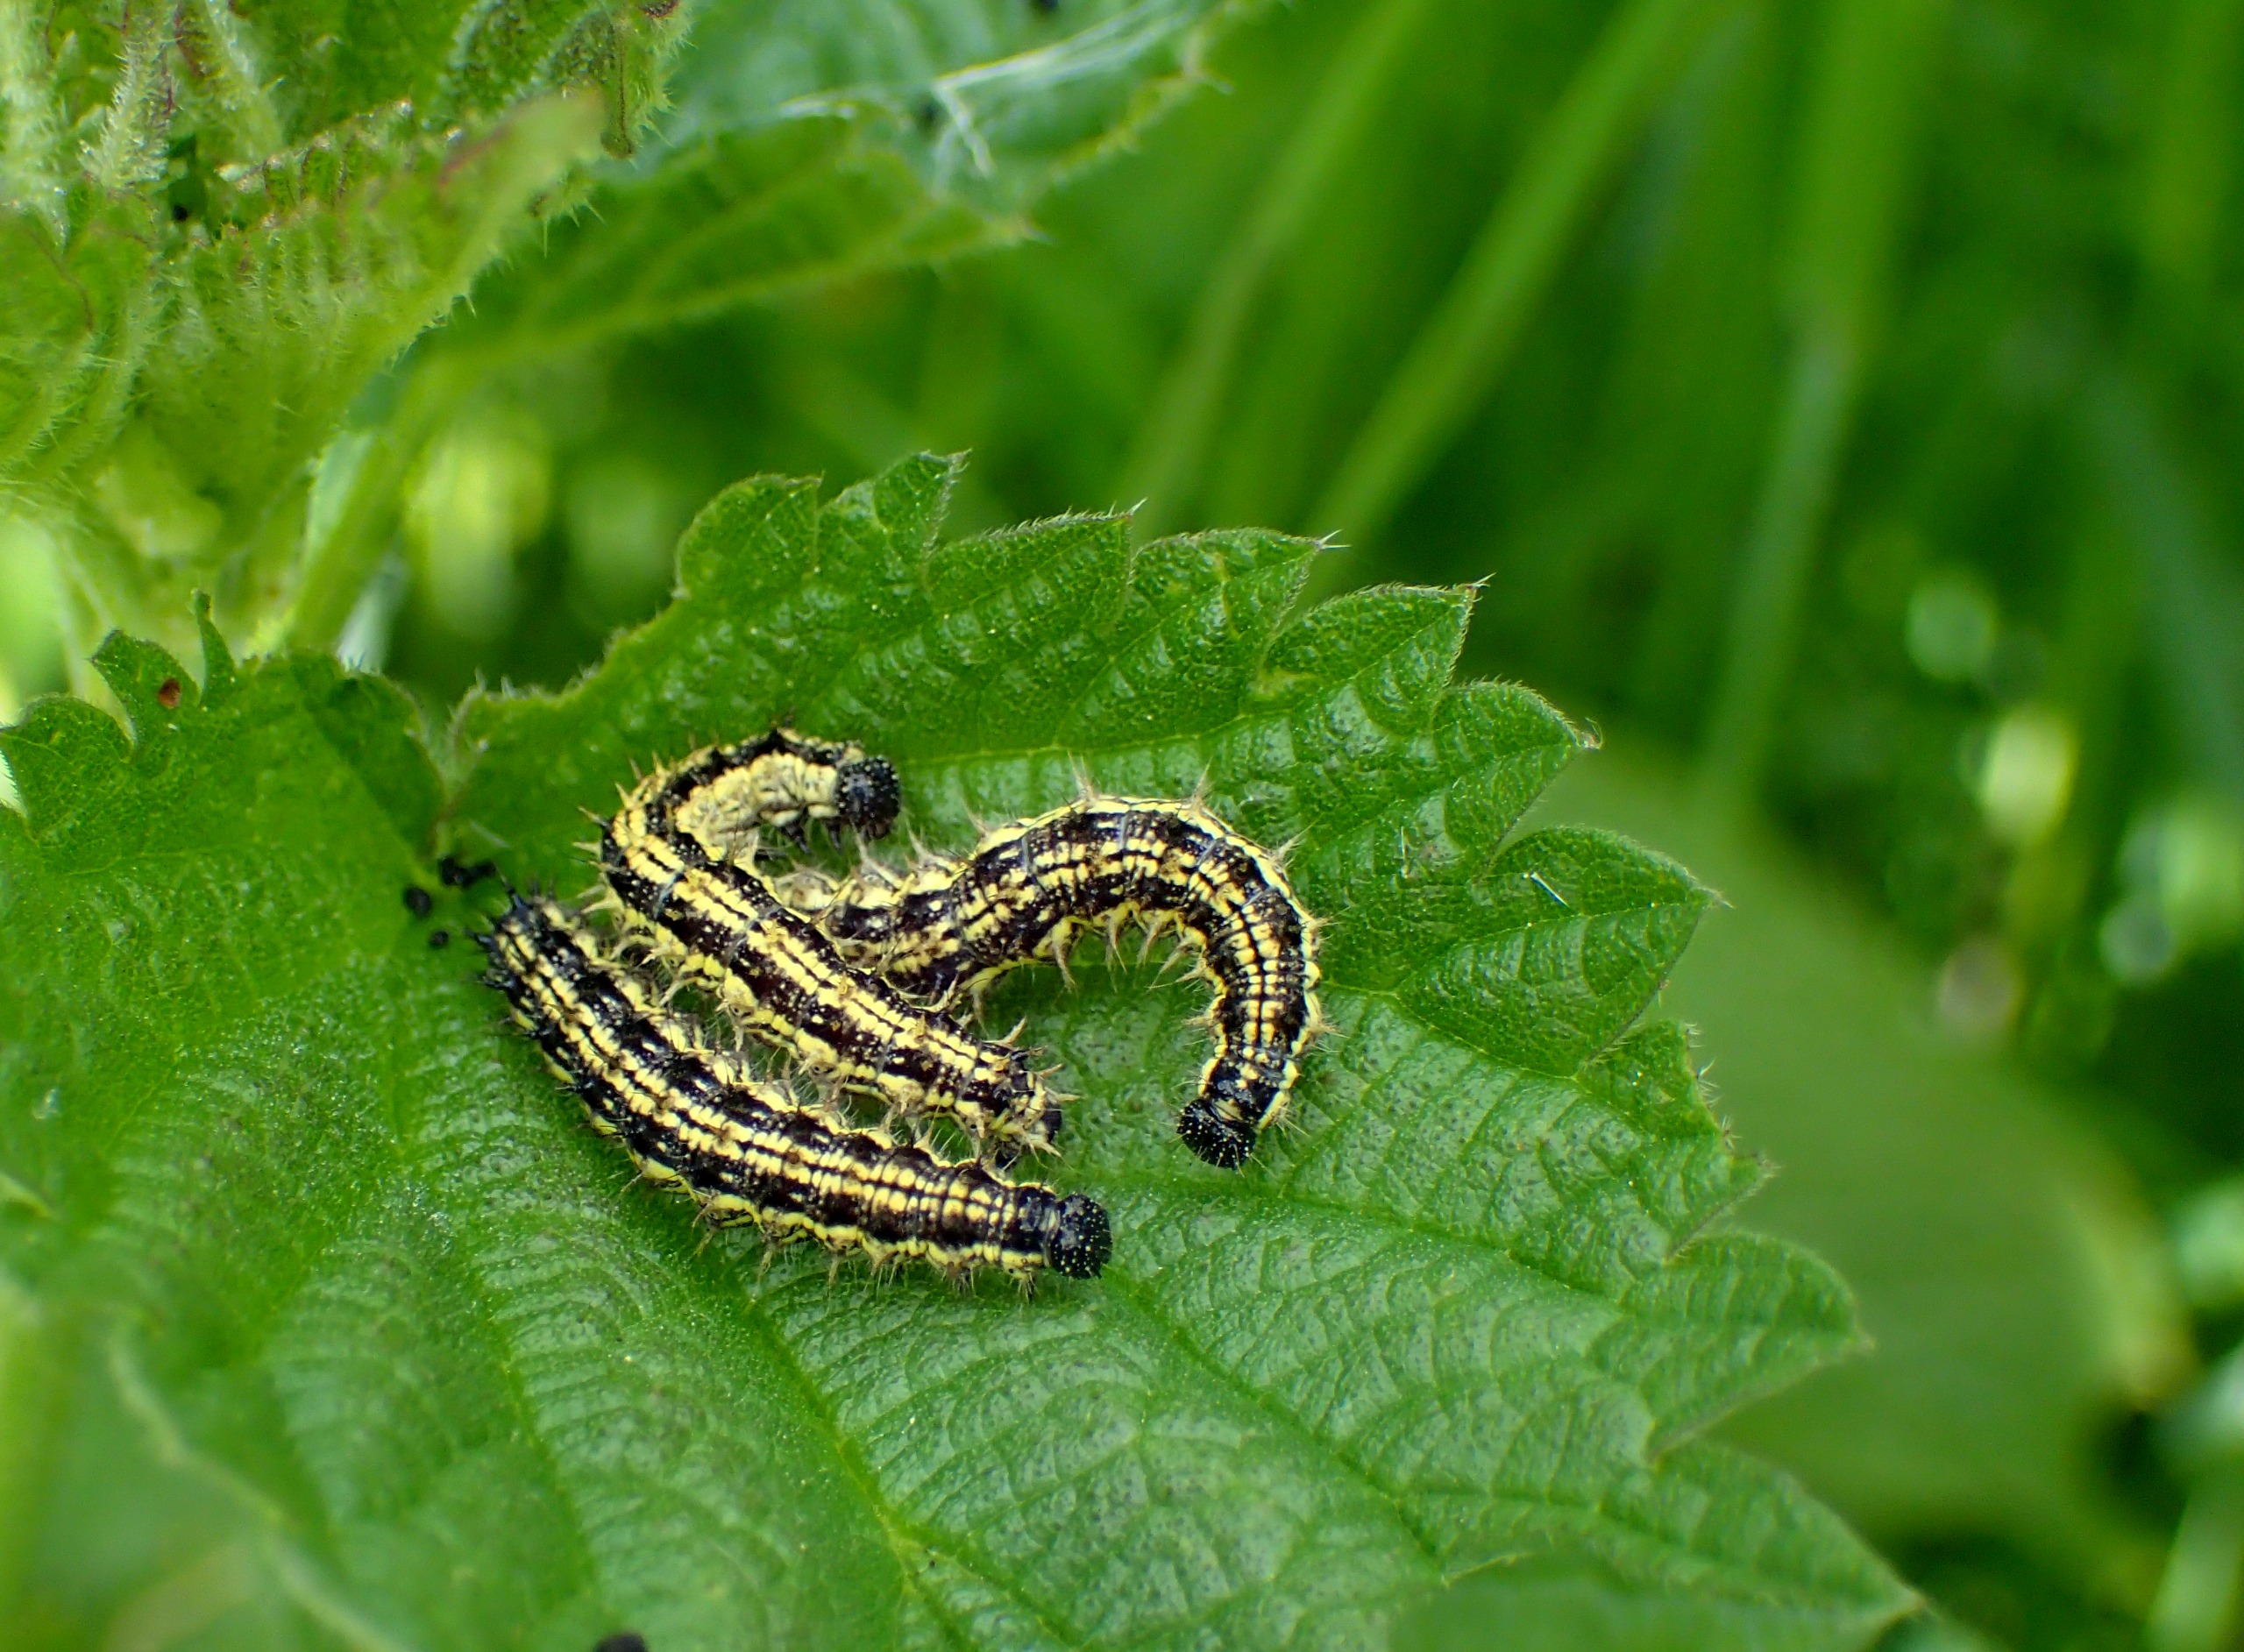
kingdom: Animalia
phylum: Arthropoda
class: Insecta
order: Lepidoptera
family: Nymphalidae
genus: Aglais
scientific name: Aglais urticae
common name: Nældens takvinge
